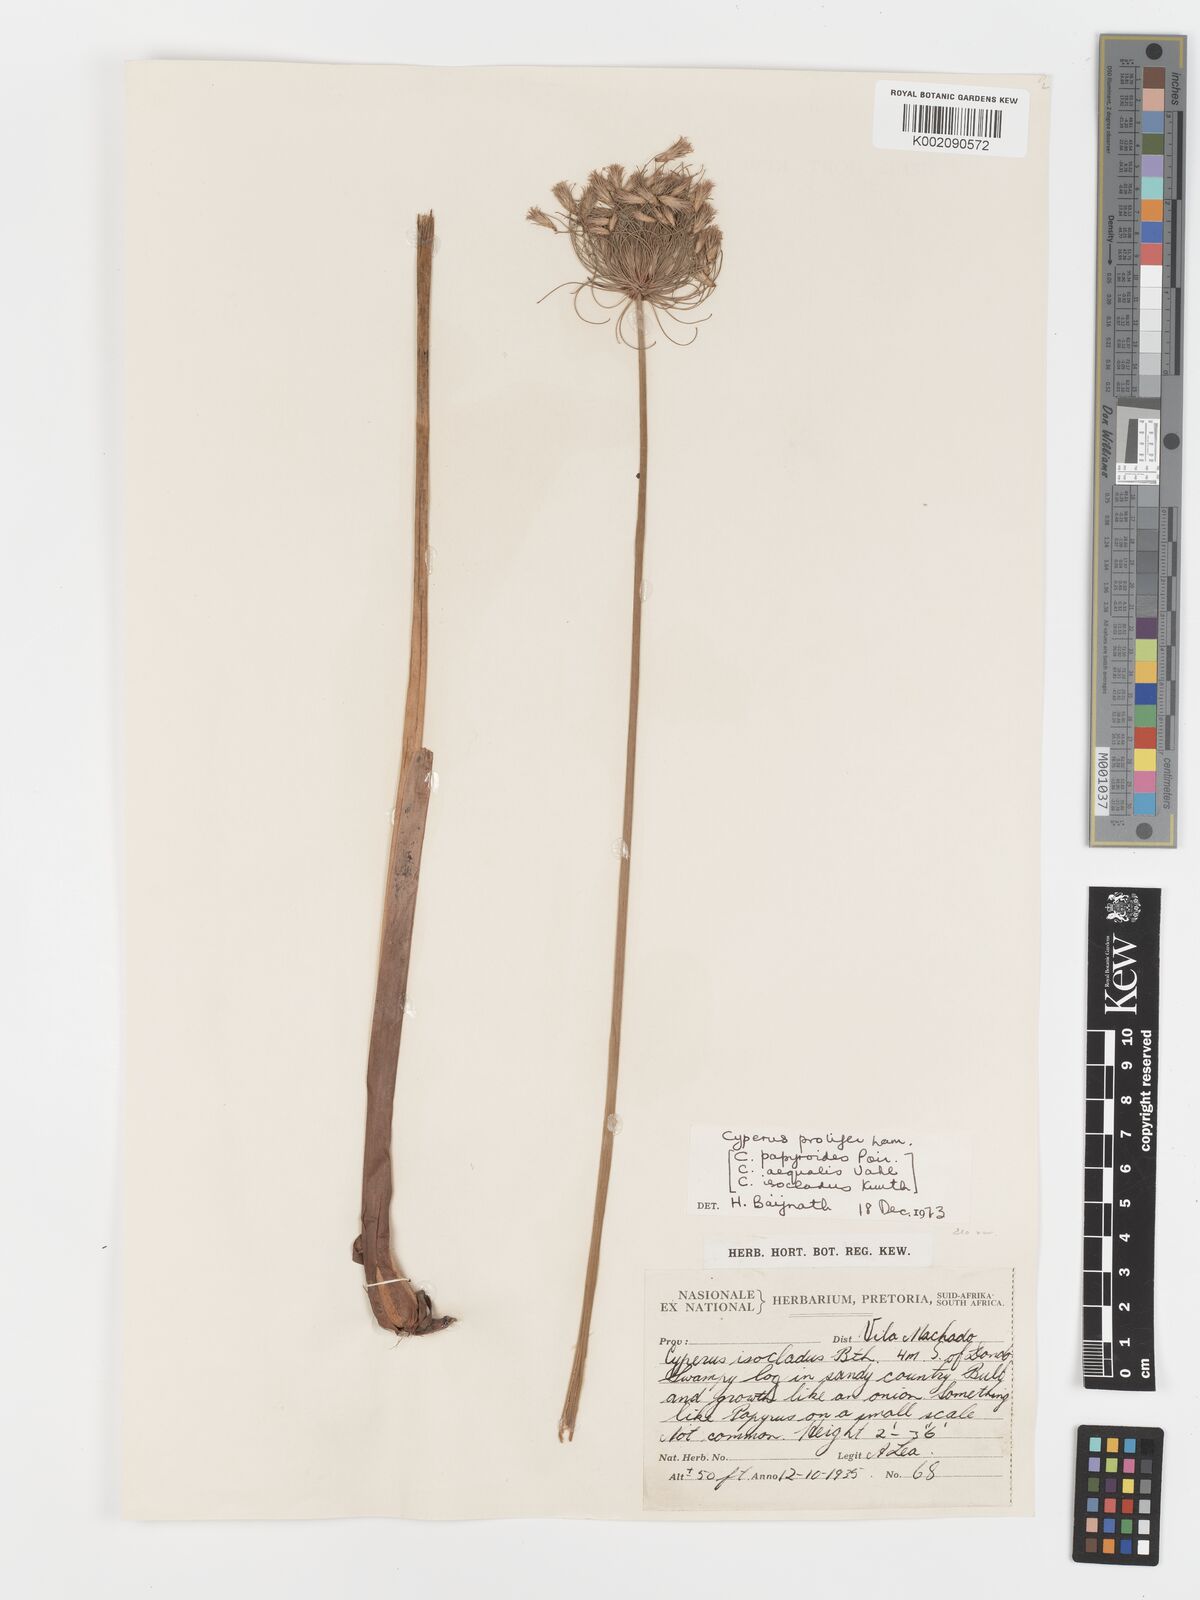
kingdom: Plantae
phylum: Tracheophyta
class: Liliopsida
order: Poales
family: Cyperaceae
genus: Cyperus
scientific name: Cyperus prolifer
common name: Miniature flatsedge
